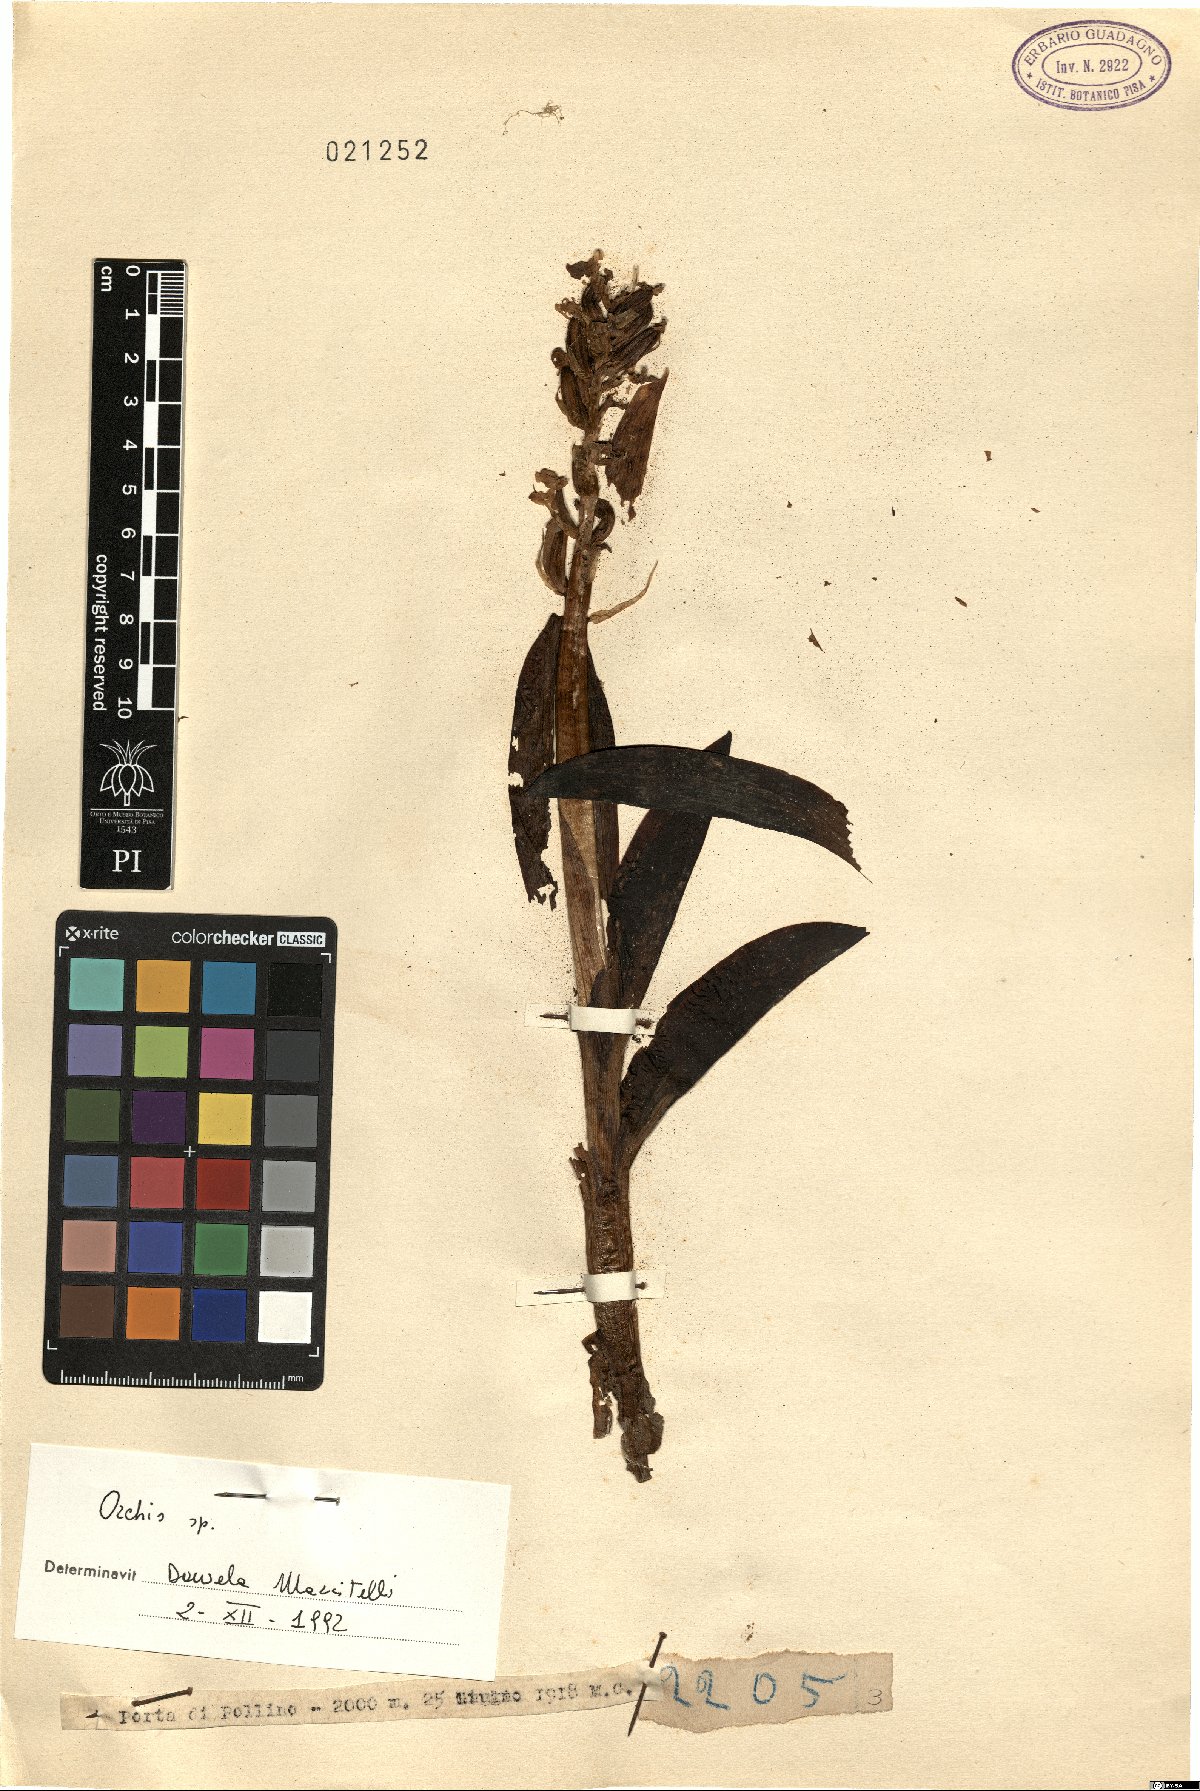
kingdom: Plantae
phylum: Tracheophyta
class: Liliopsida
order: Asparagales
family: Orchidaceae
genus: Orchis
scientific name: Orchis
